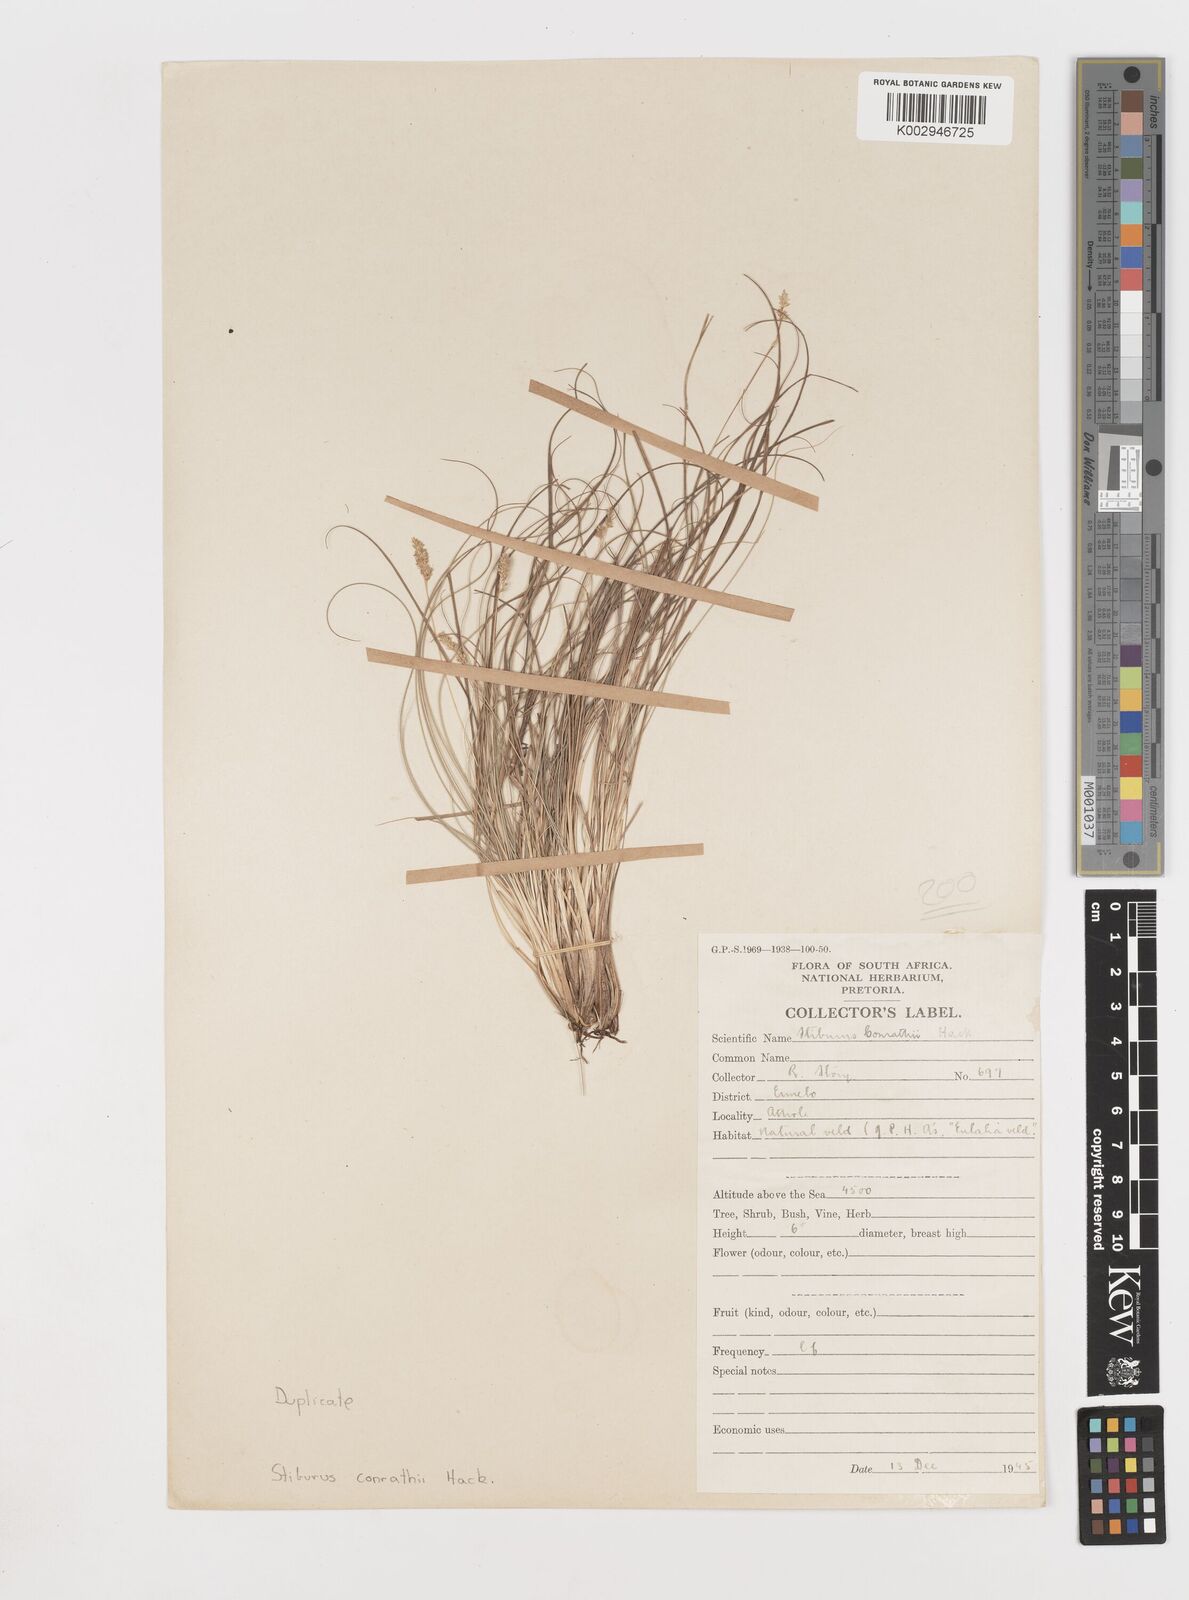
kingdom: Plantae
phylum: Tracheophyta
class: Liliopsida
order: Poales
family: Poaceae
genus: Stiburus
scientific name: Stiburus conrathii
